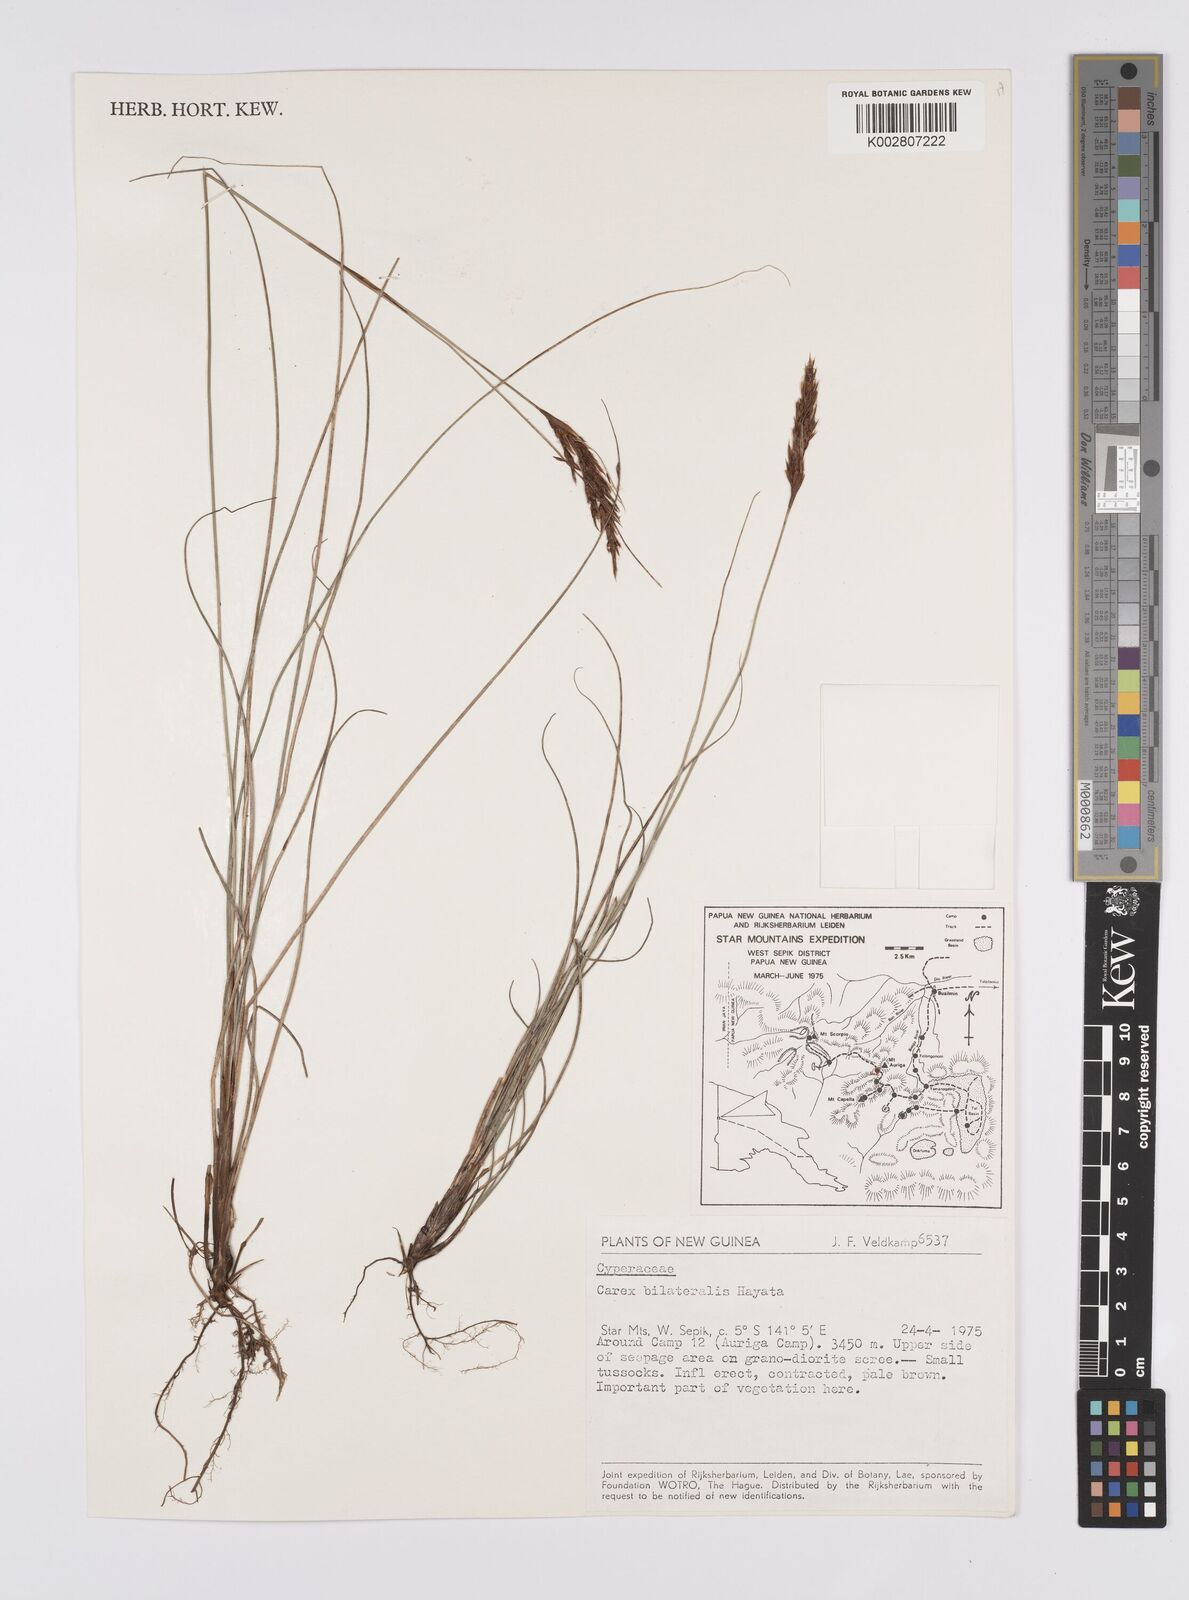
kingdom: Plantae
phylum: Tracheophyta
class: Liliopsida
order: Poales
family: Cyperaceae
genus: Carex
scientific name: Carex bilateralis
